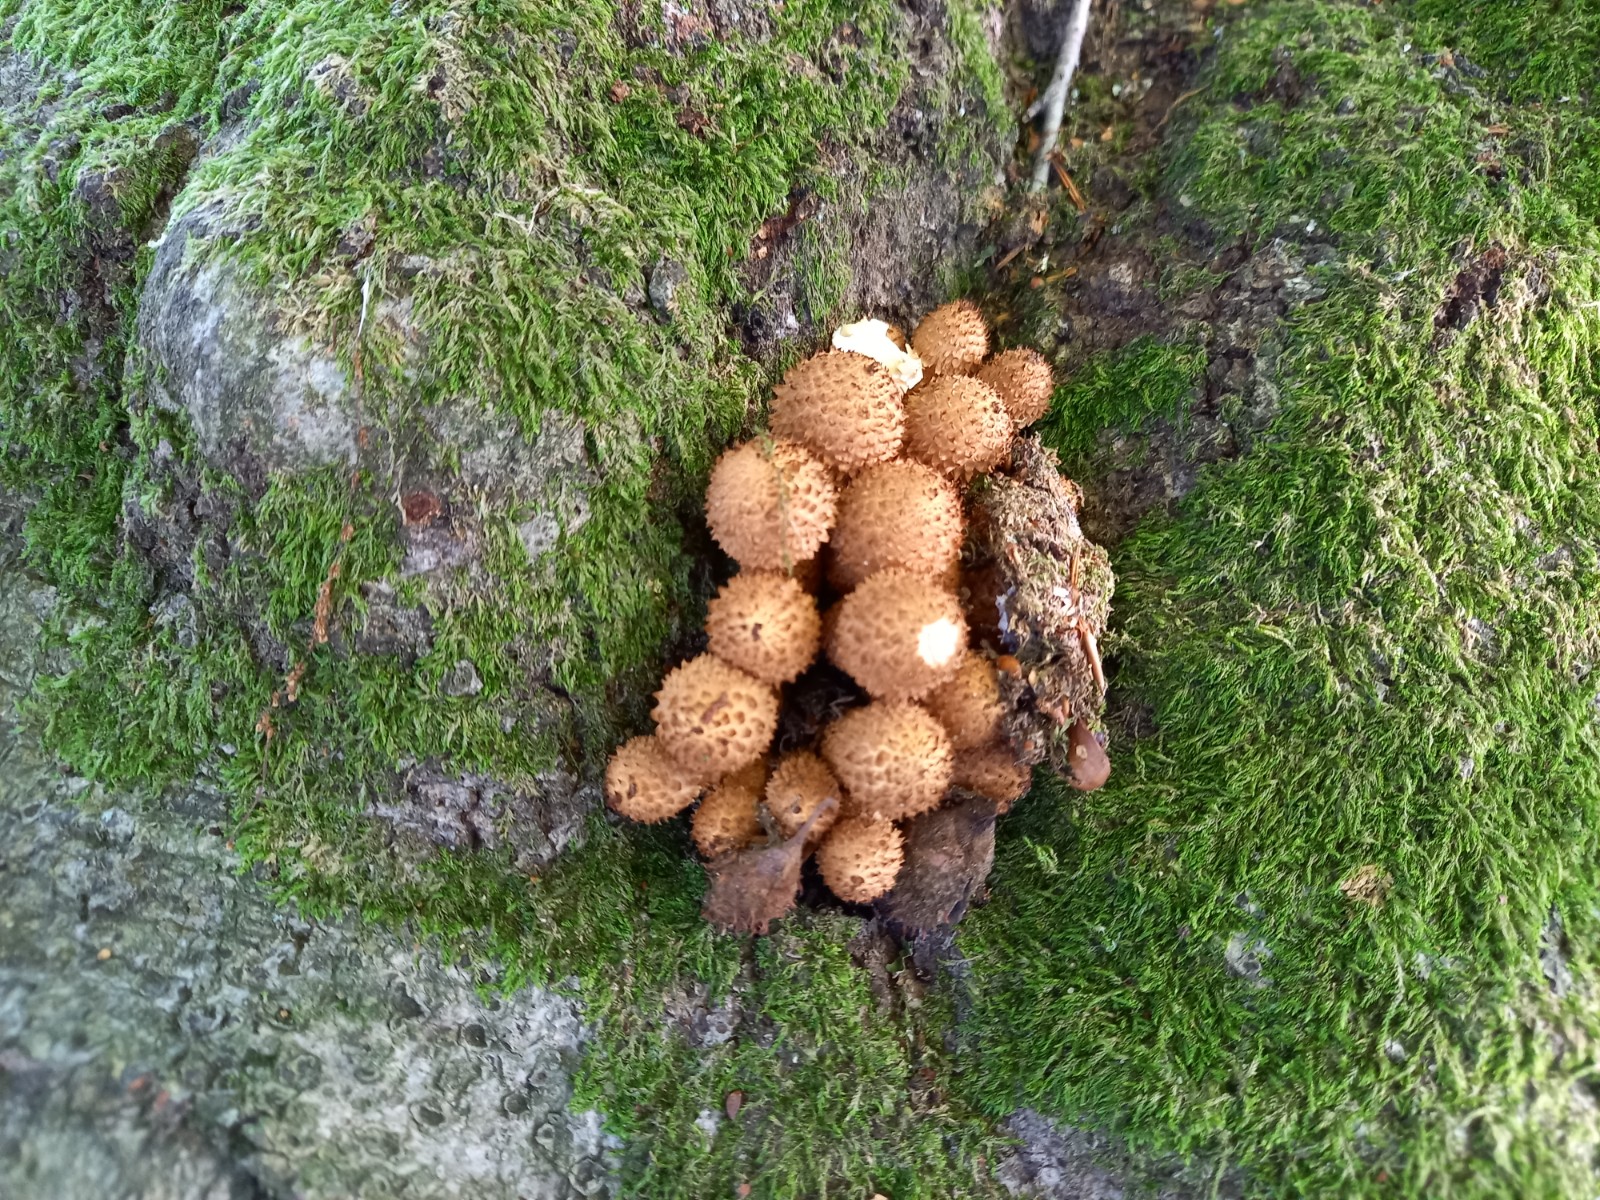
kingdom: Fungi
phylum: Basidiomycota
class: Agaricomycetes
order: Agaricales
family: Strophariaceae
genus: Pholiota
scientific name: Pholiota squarrosa
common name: krumskællet skælhat
